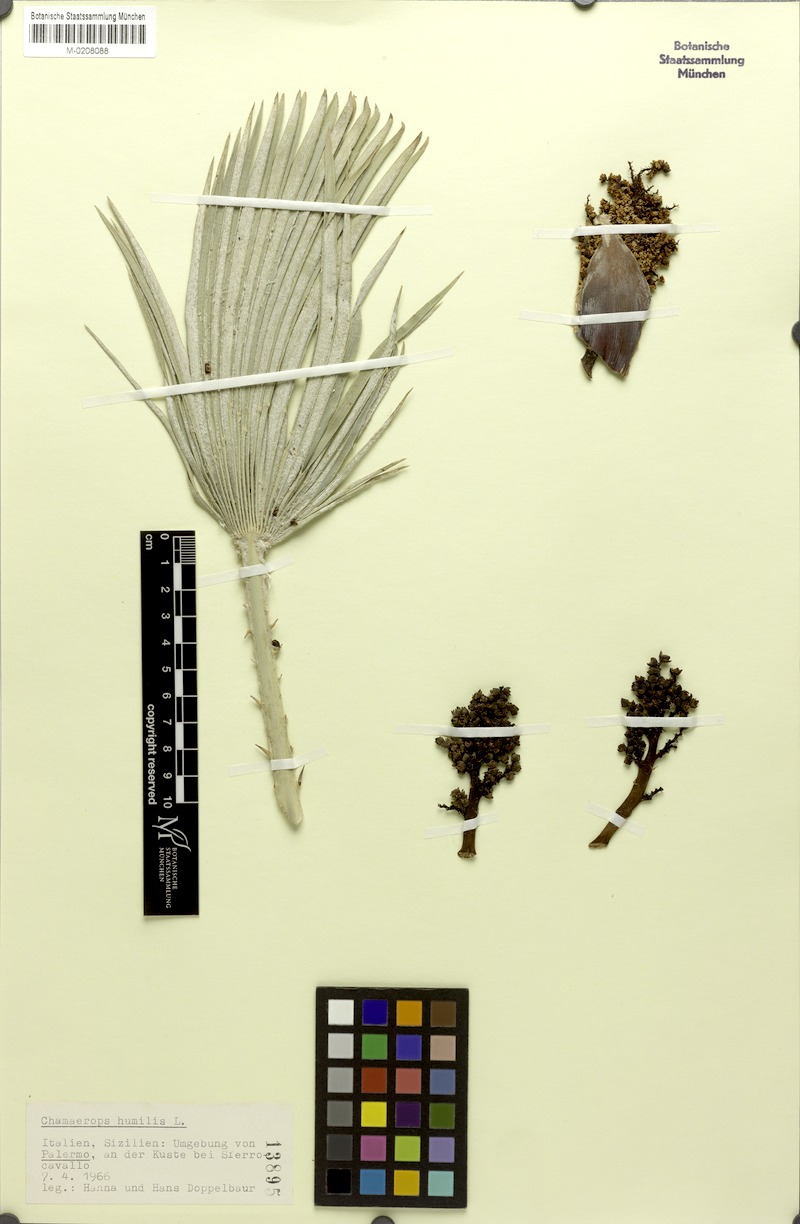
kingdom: Plantae
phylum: Tracheophyta
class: Liliopsida
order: Arecales
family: Arecaceae
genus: Chamaerops
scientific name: Chamaerops humilis
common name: Dwarf fan palm
